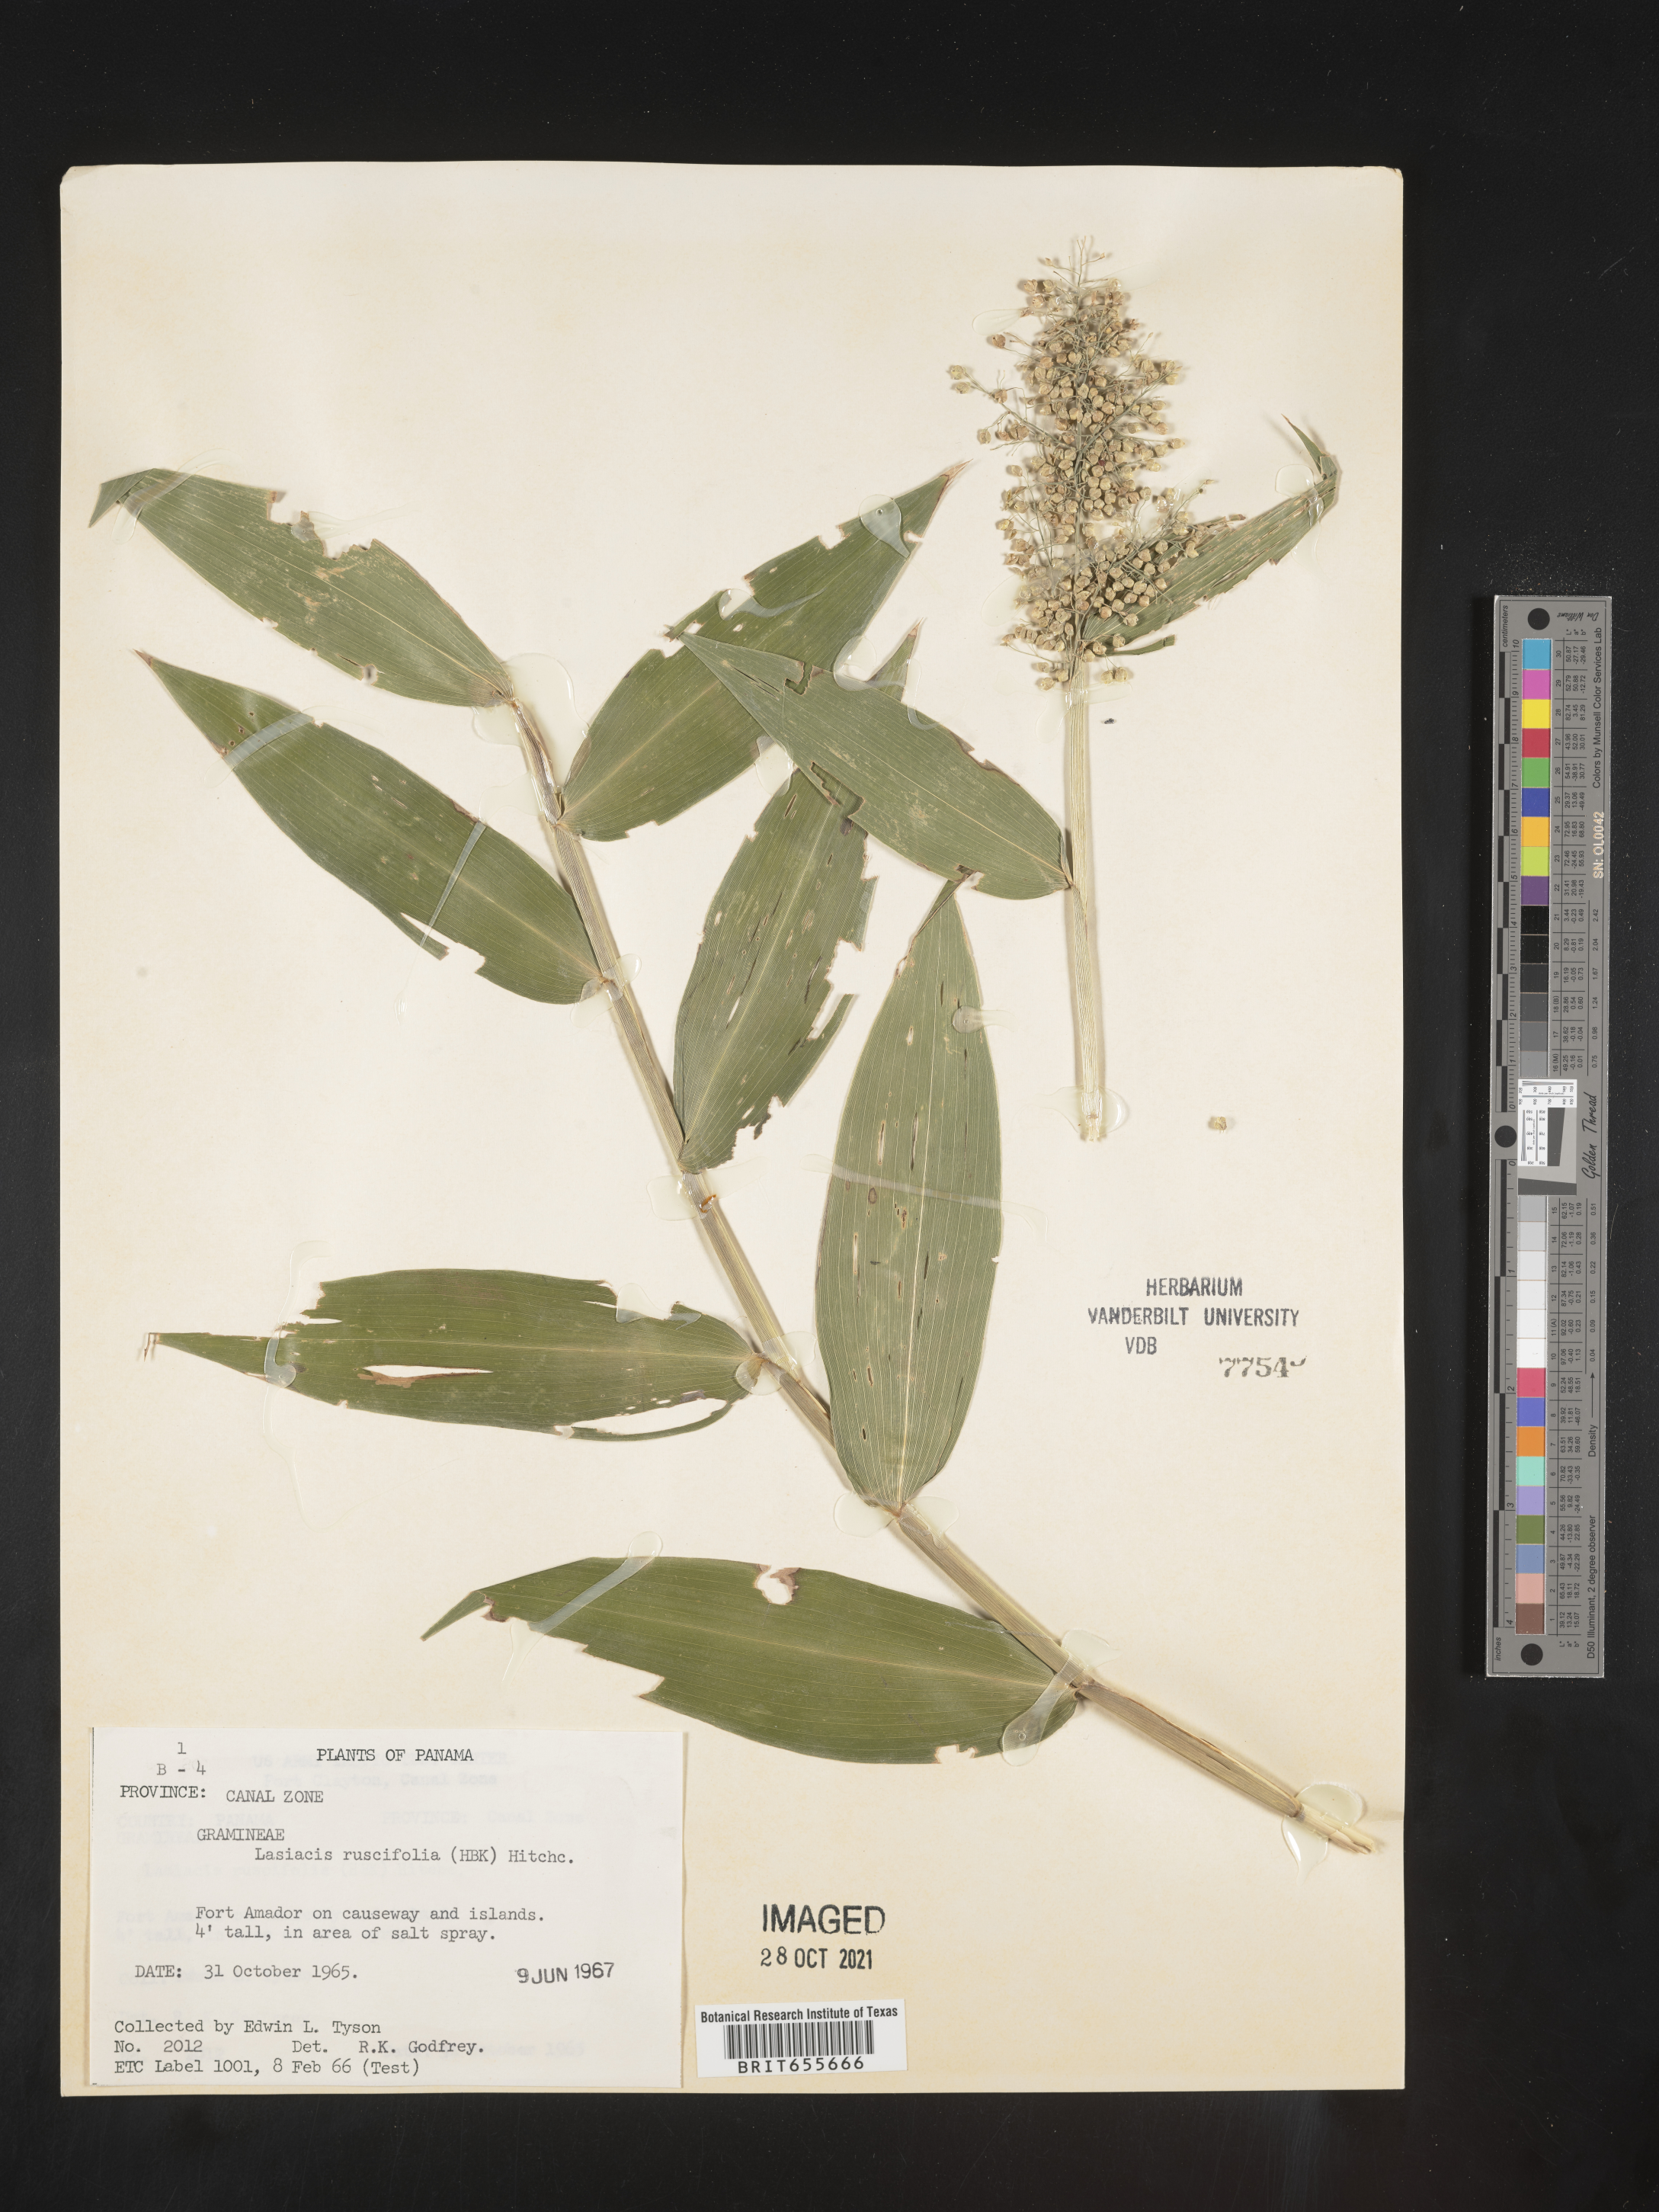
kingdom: Plantae
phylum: Tracheophyta
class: Liliopsida
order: Poales
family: Poaceae
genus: Lasiacis
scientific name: Lasiacis
